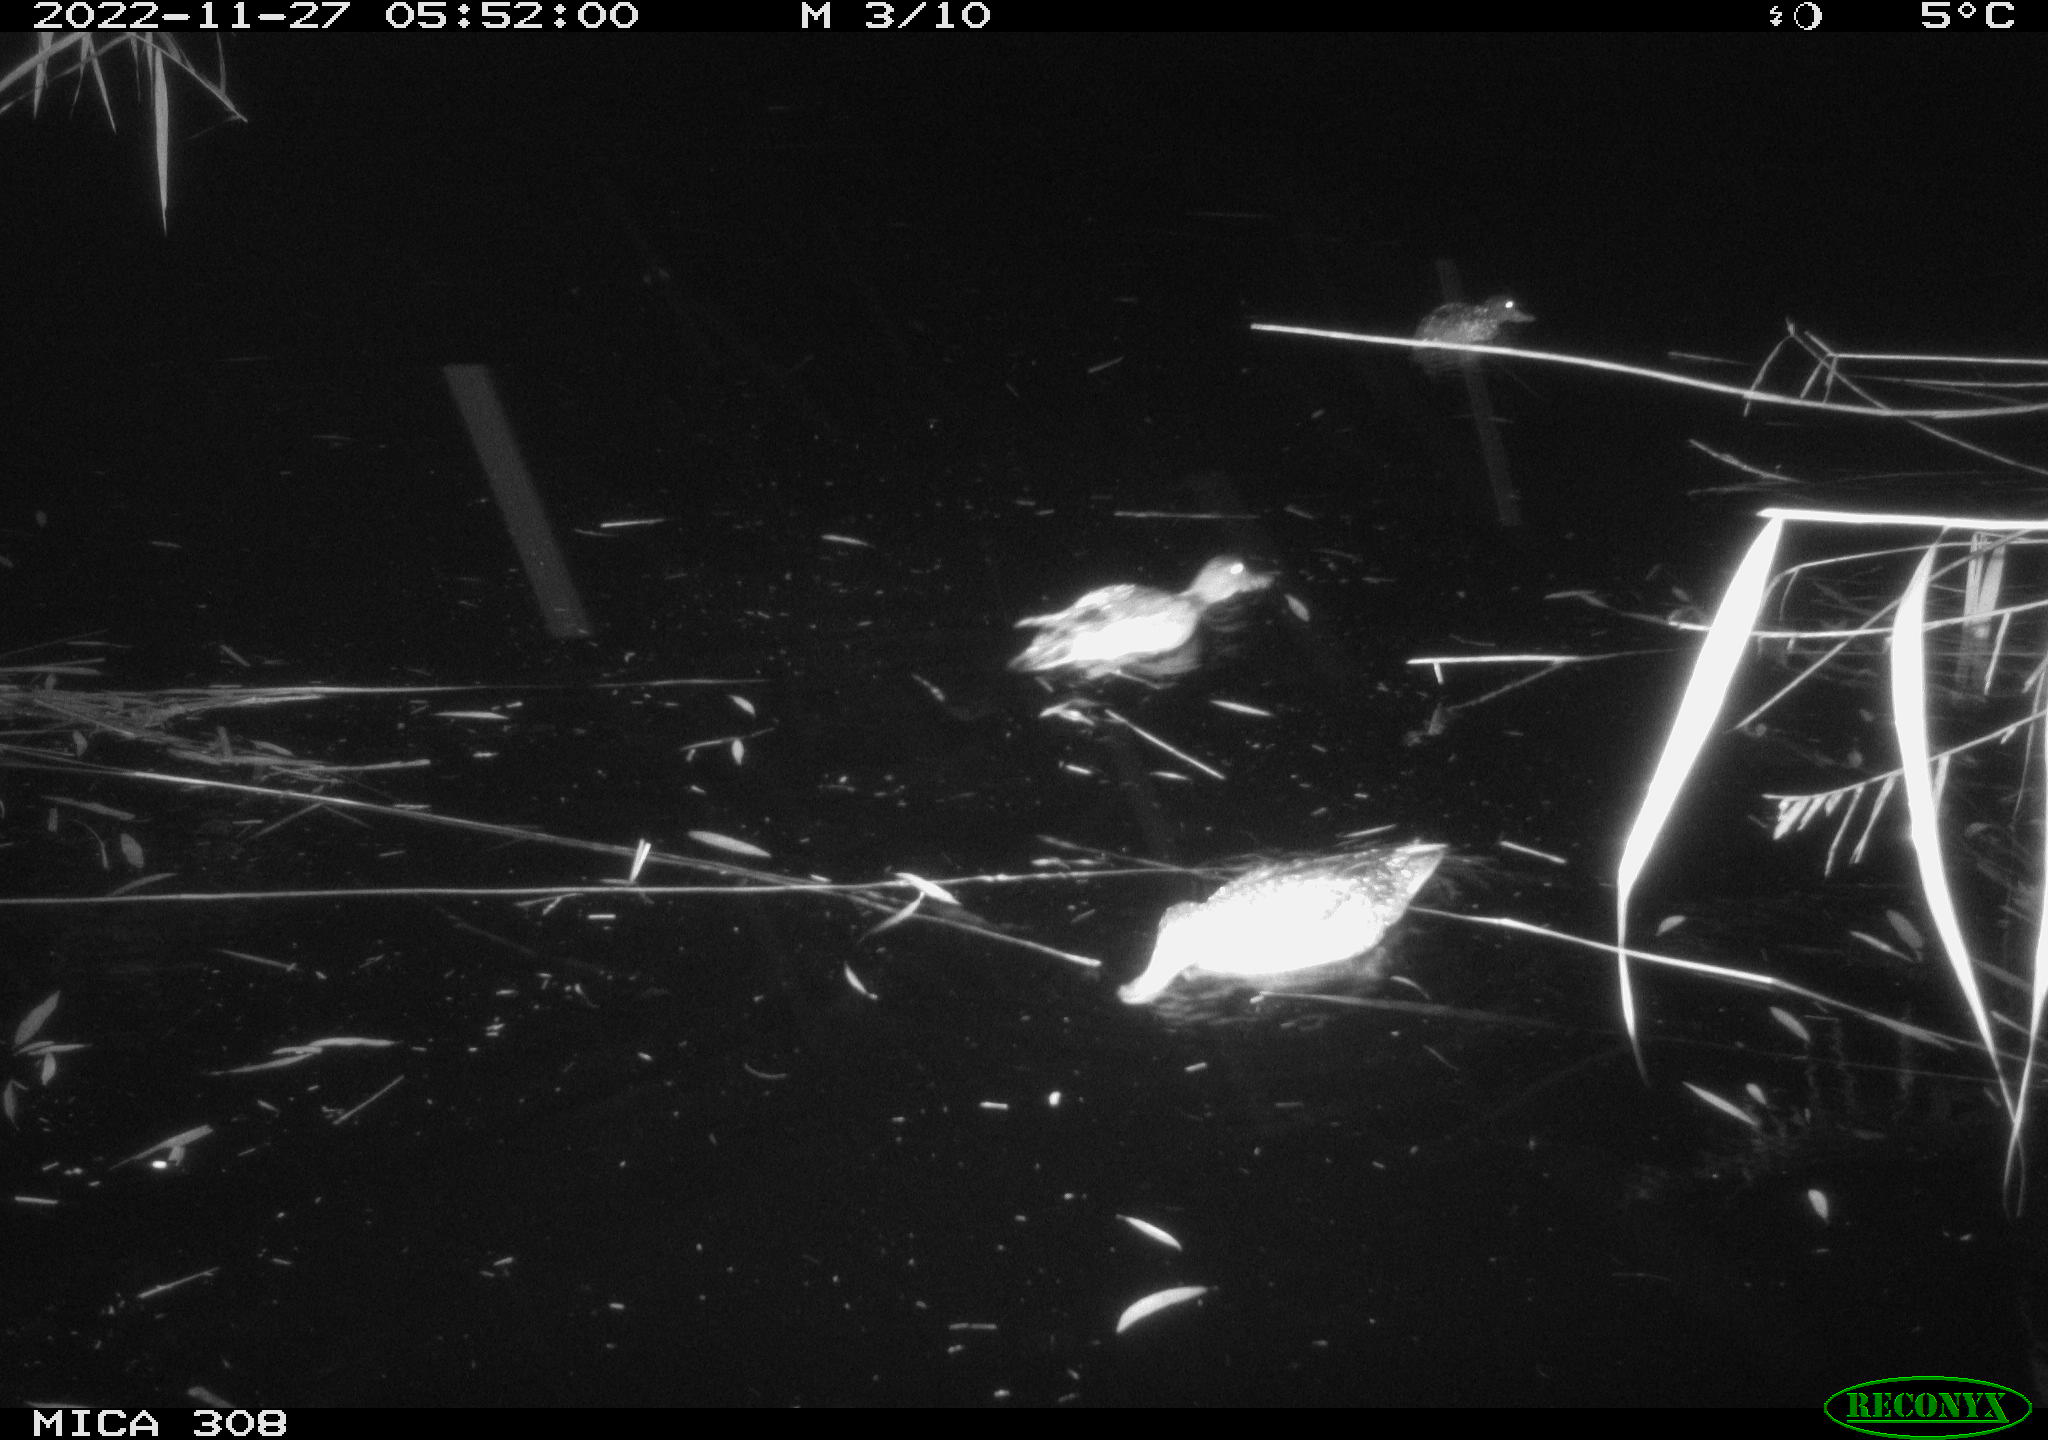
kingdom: Animalia
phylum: Chordata
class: Aves
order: Anseriformes
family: Anatidae
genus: Anas
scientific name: Anas
